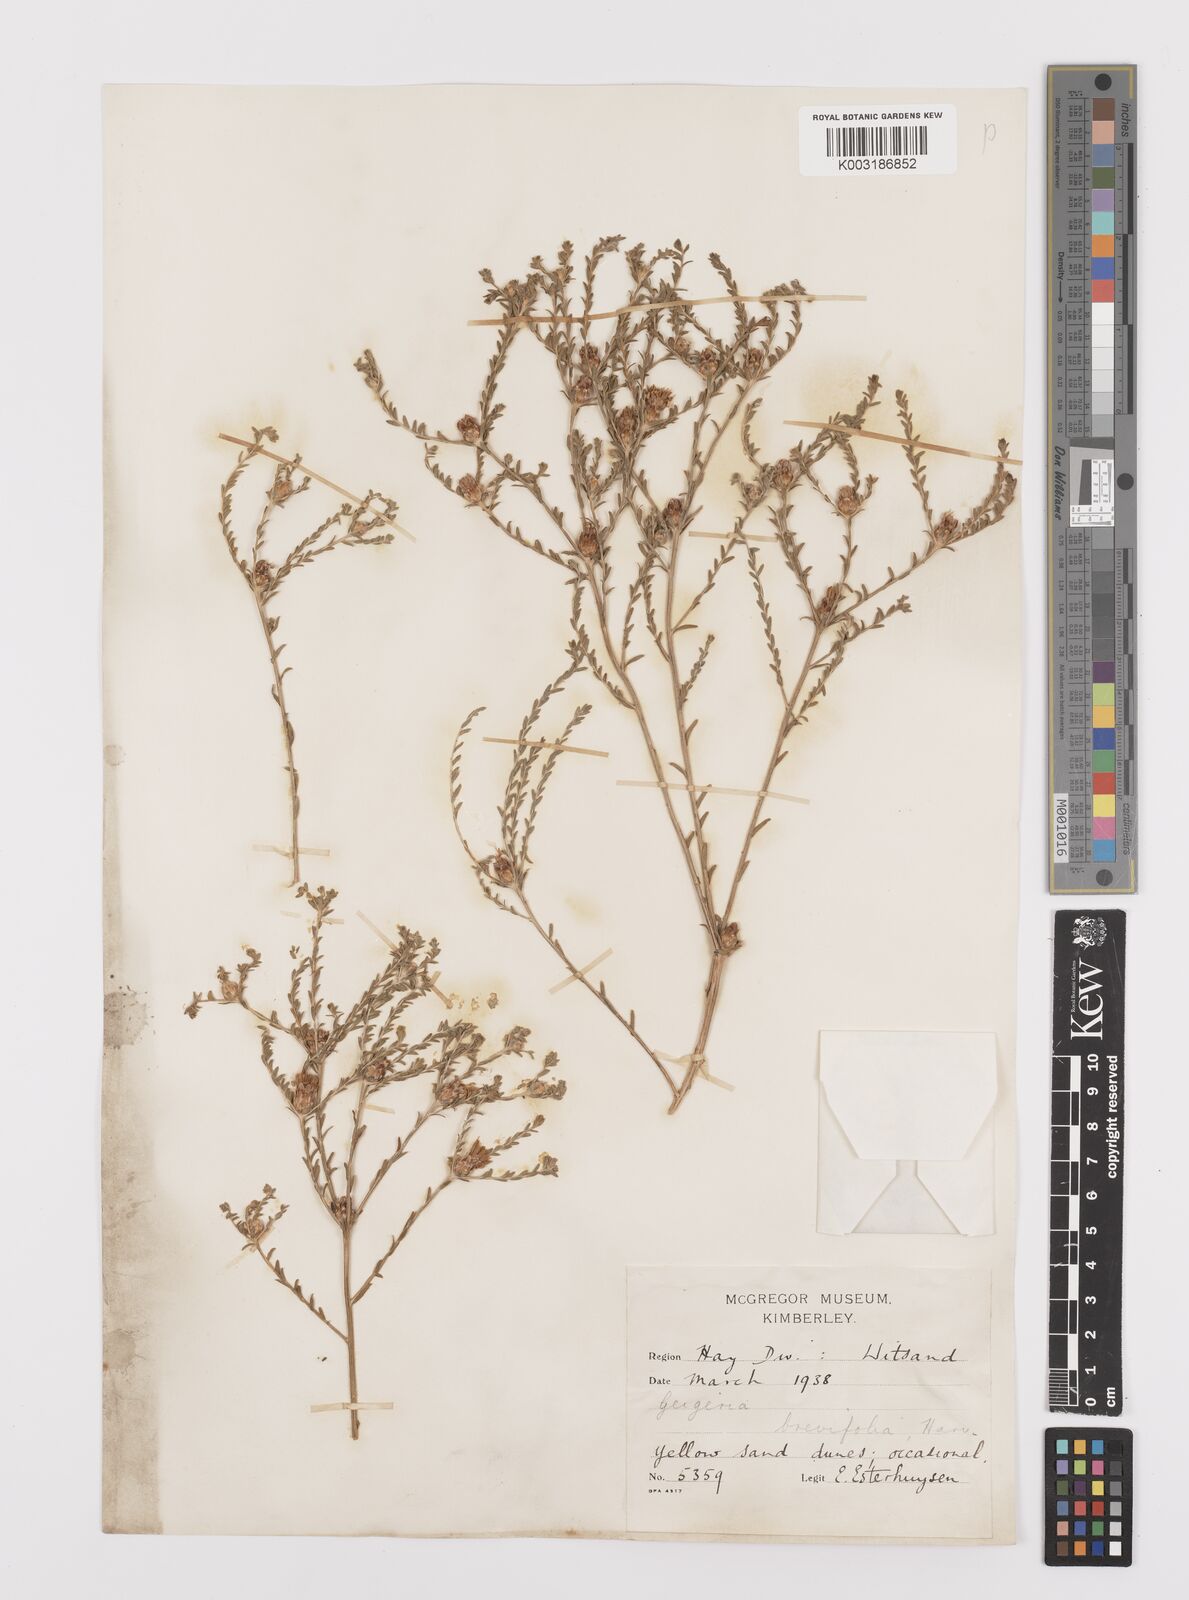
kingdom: Plantae
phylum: Tracheophyta
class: Magnoliopsida
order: Asterales
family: Asteraceae
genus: Geigeria
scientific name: Geigeria brevifolia
